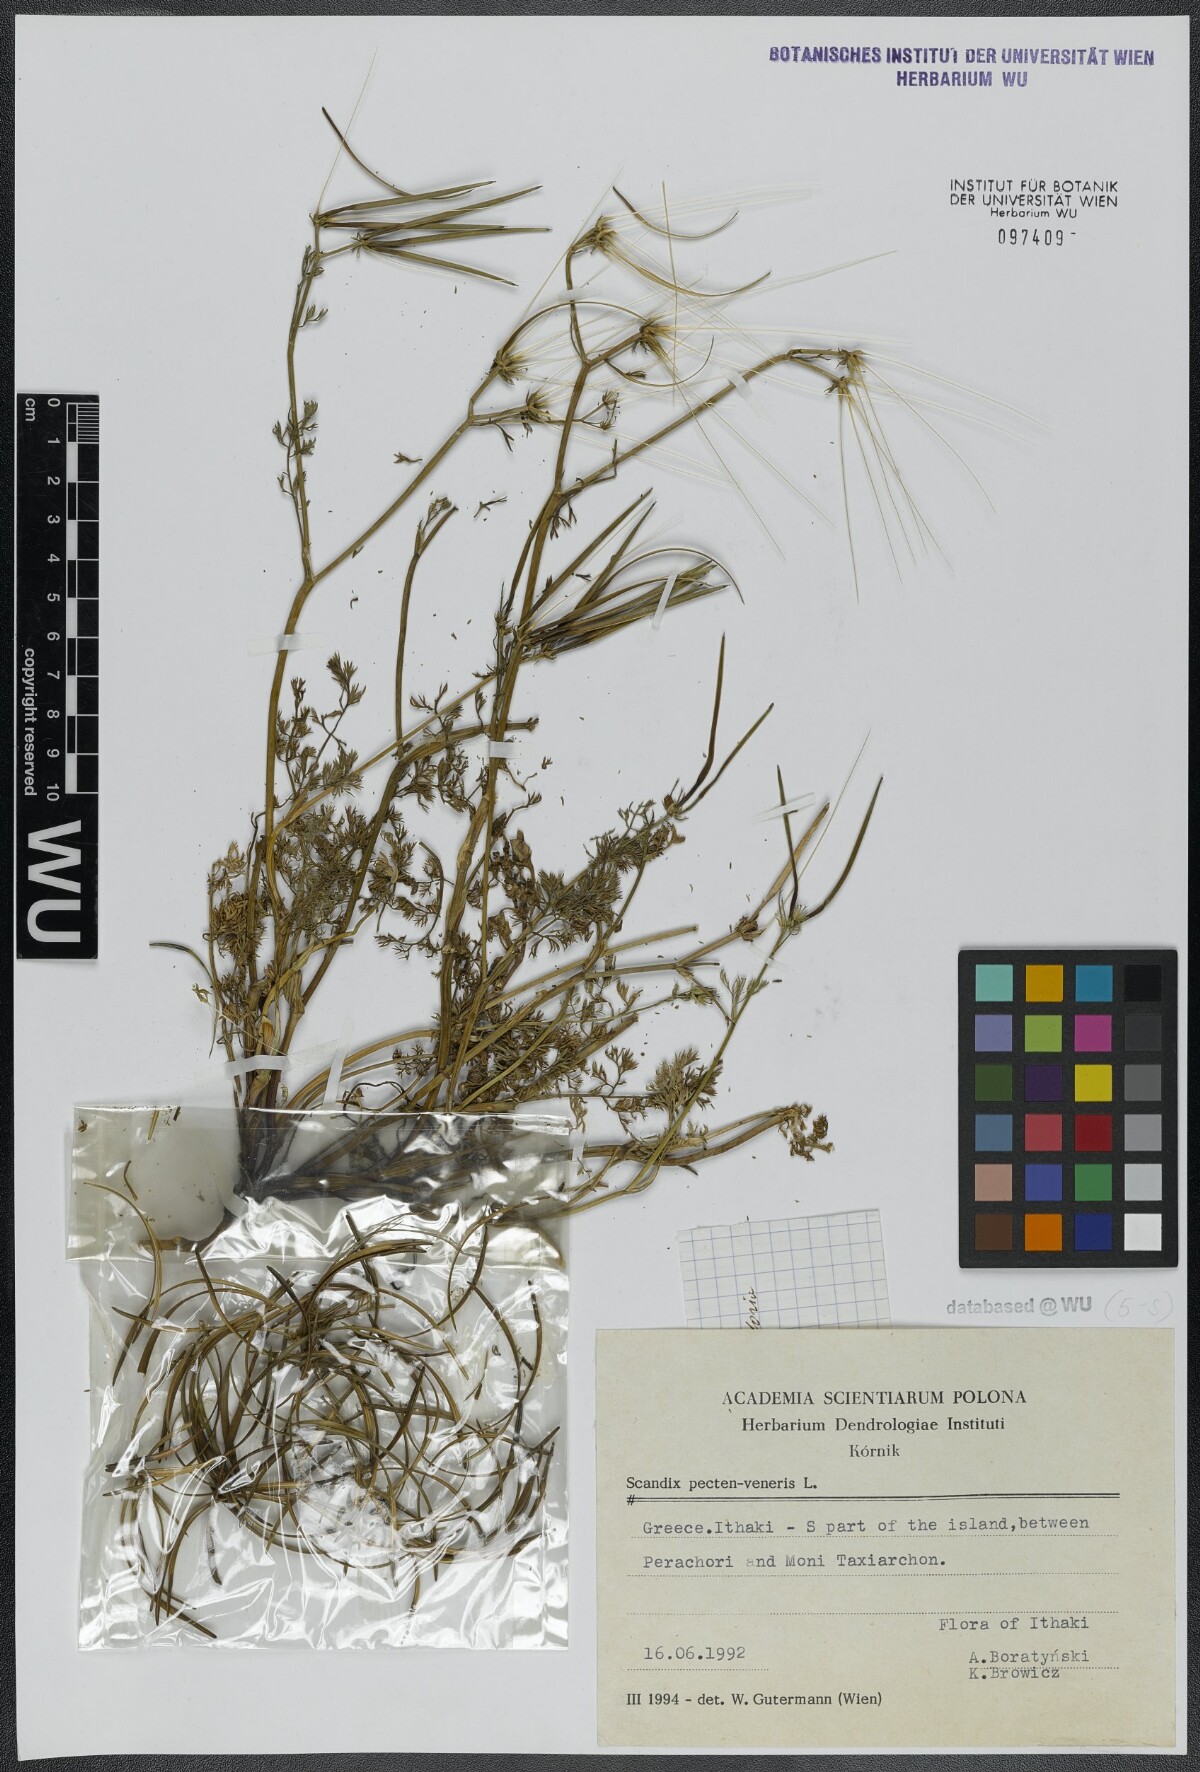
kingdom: Plantae
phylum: Tracheophyta
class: Magnoliopsida
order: Apiales
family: Apiaceae
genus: Scandix
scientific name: Scandix pecten-veneris
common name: Shepherd's-needle
